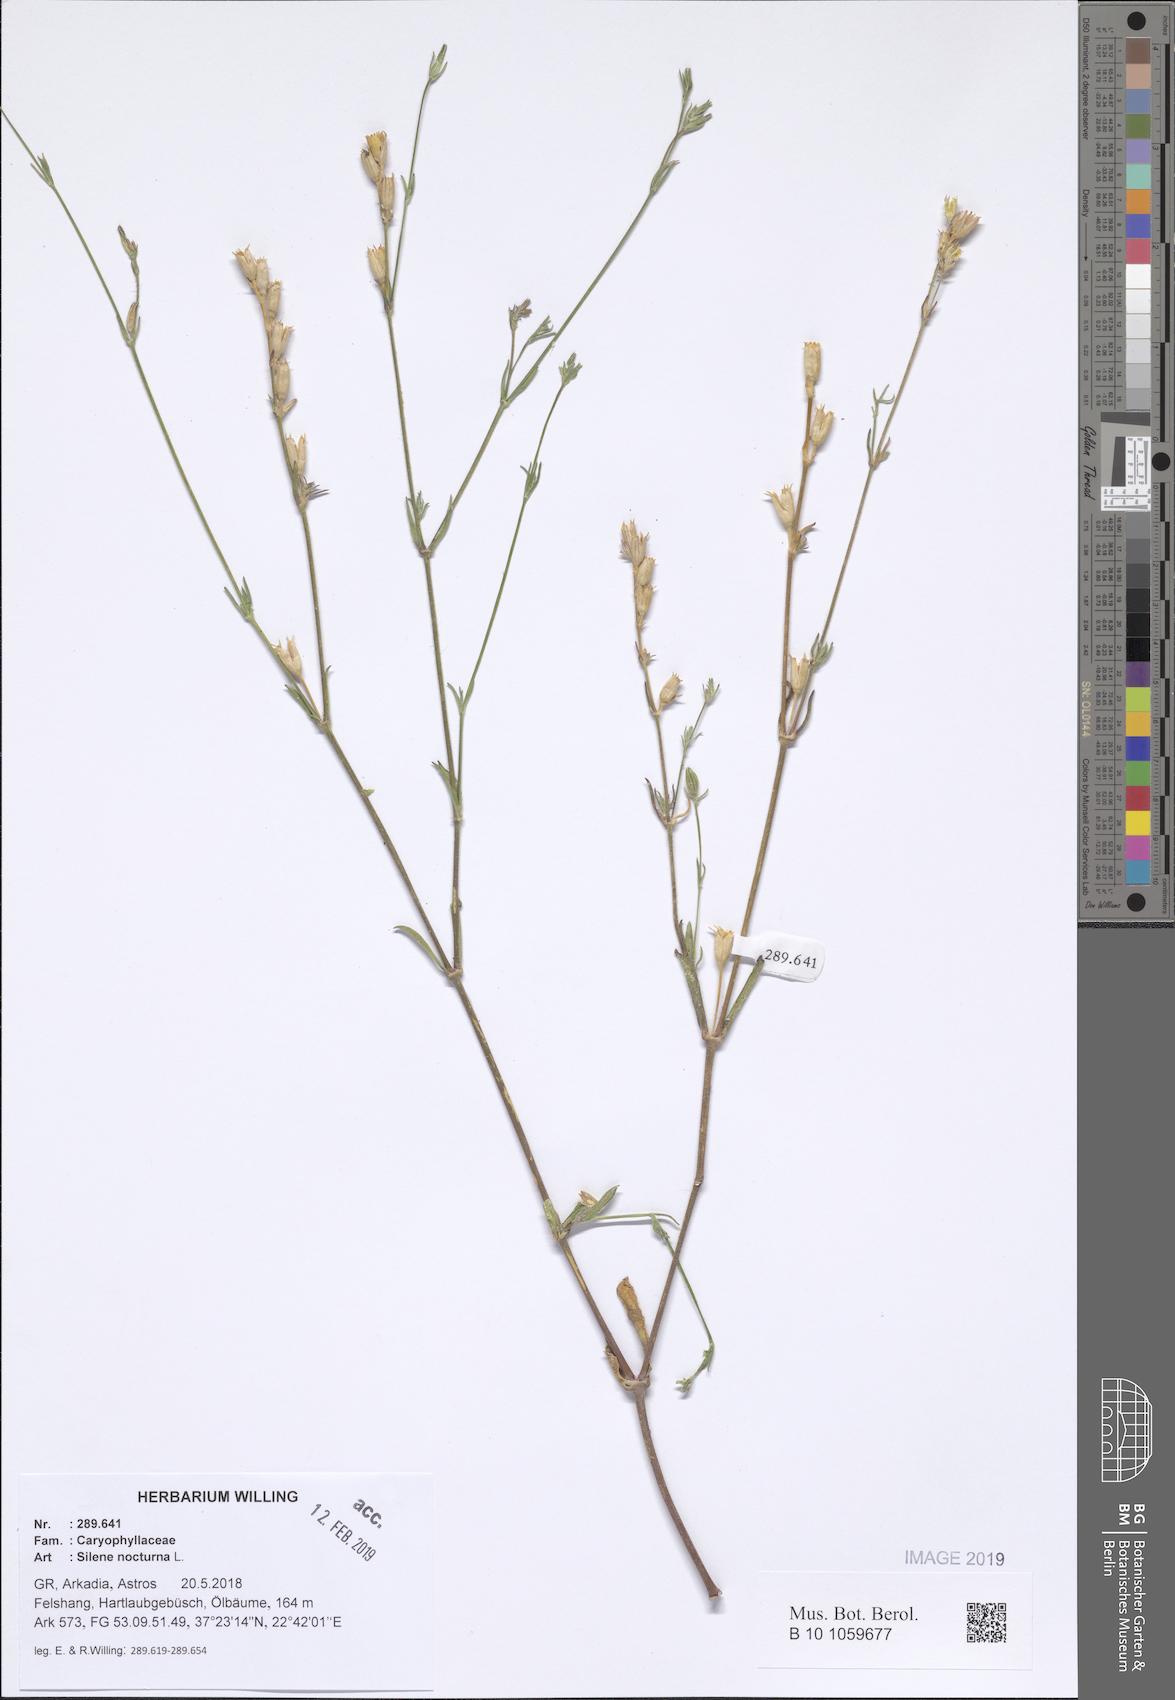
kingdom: Plantae
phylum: Tracheophyta
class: Magnoliopsida
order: Caryophyllales
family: Caryophyllaceae
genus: Silene
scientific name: Silene nocturna
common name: Mediterranean catchfly
